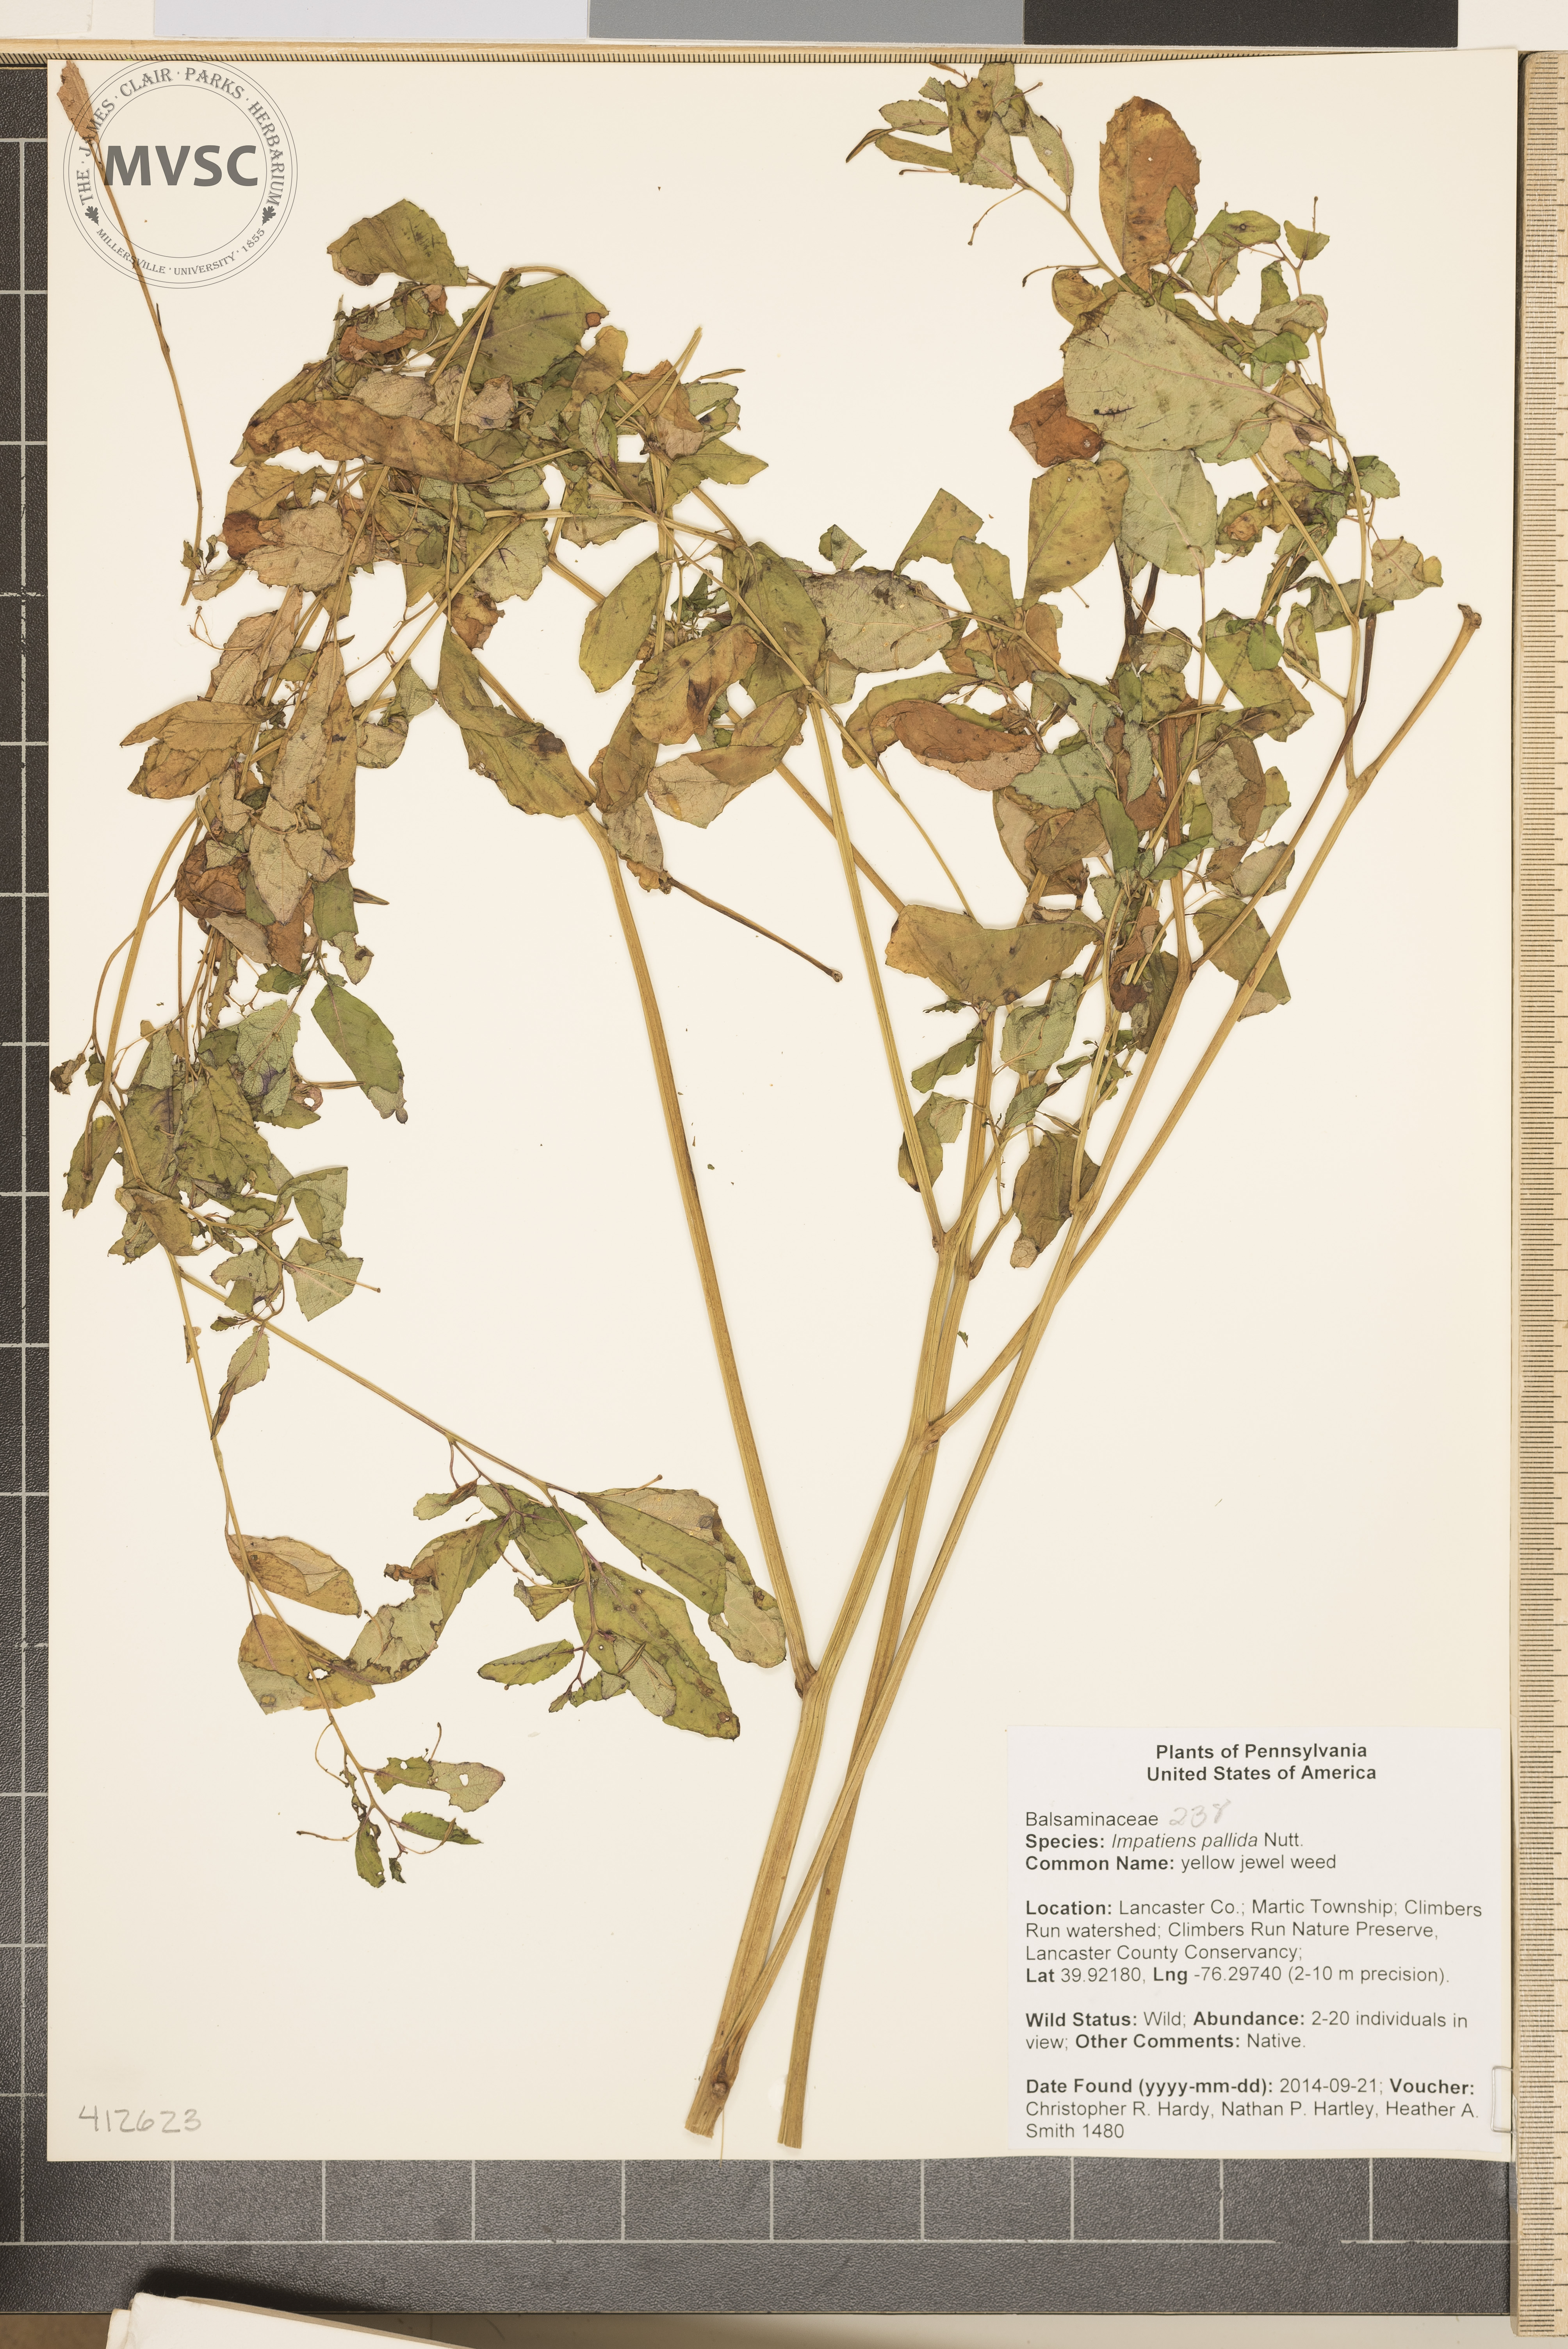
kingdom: Plantae
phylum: Tracheophyta
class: Magnoliopsida
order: Ericales
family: Balsaminaceae
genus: Impatiens
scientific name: Impatiens pallida
